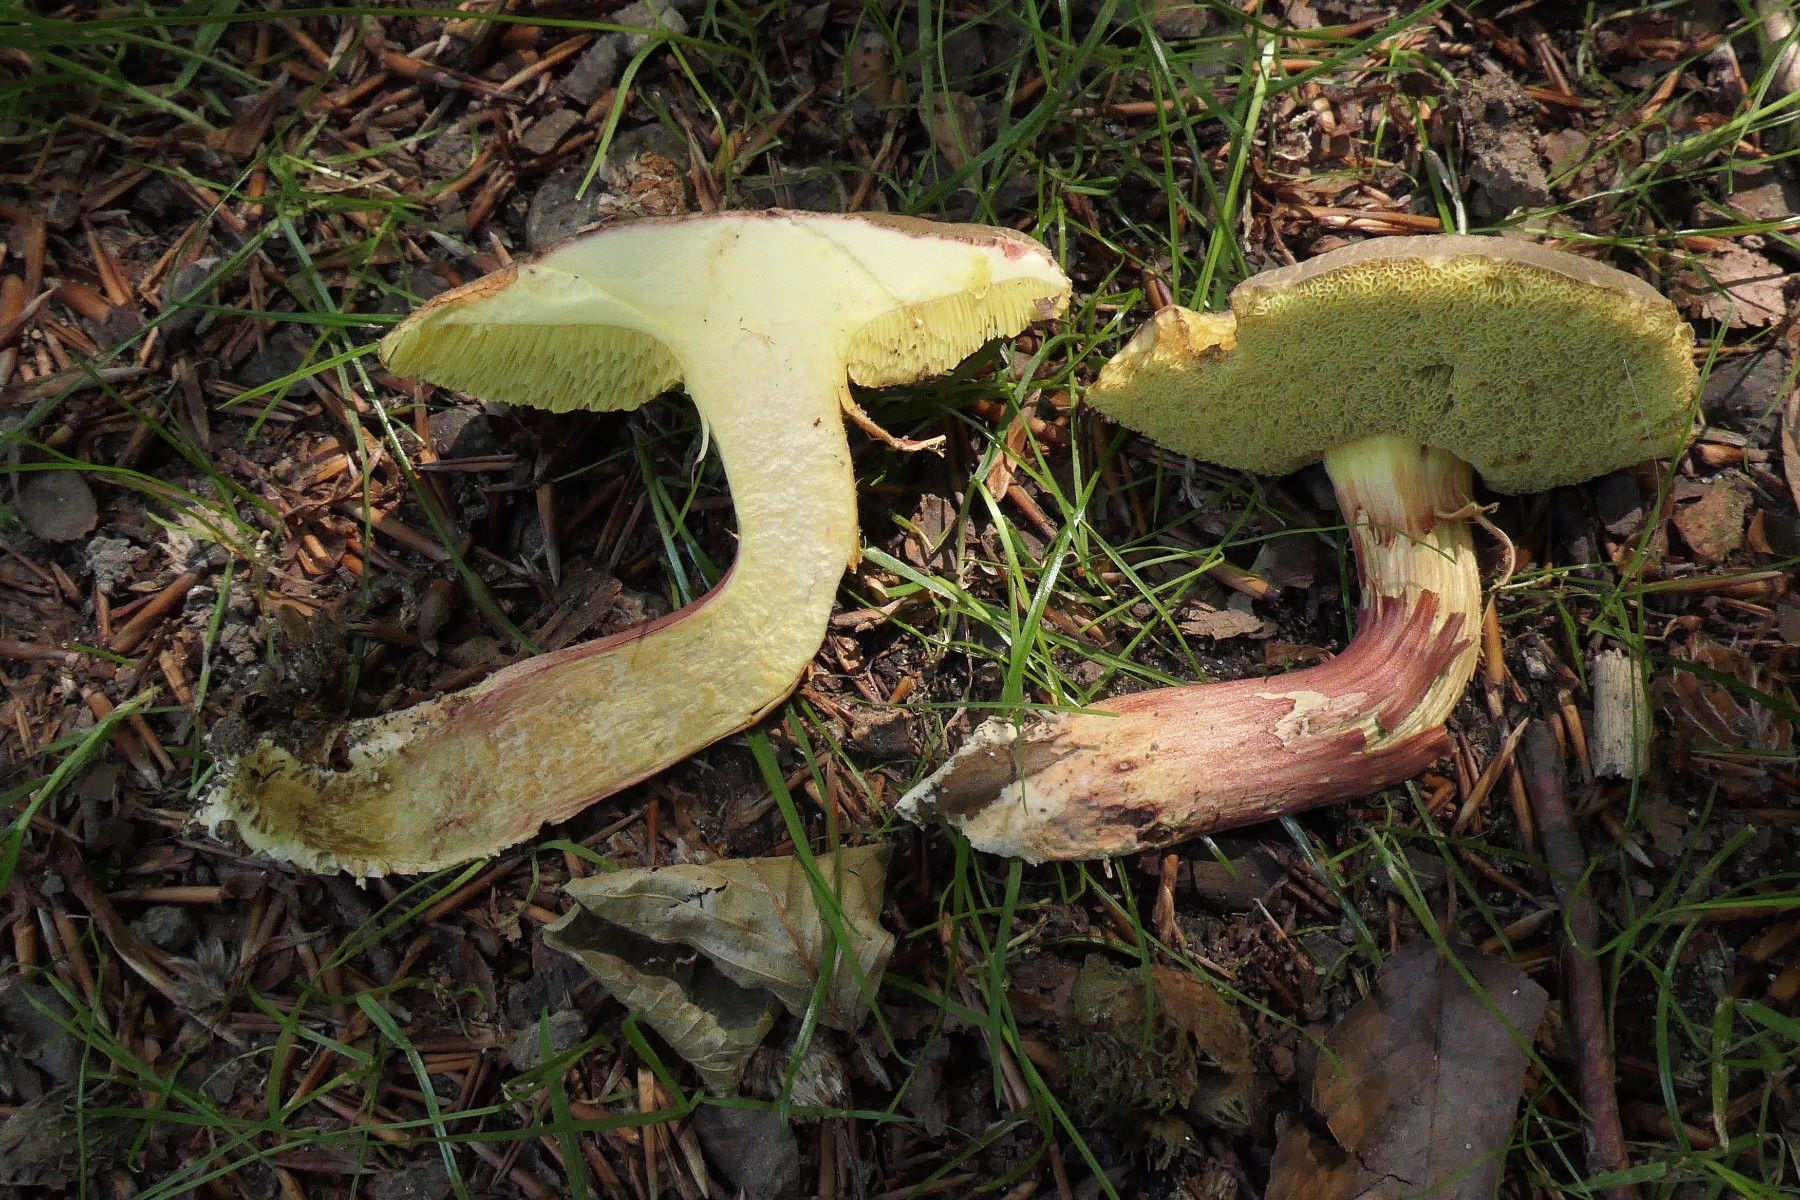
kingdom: Fungi
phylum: Basidiomycota
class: Agaricomycetes
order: Boletales
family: Boletaceae
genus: Xerocomellus
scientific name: Xerocomellus chrysenteron
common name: rødsprukken rørhat
